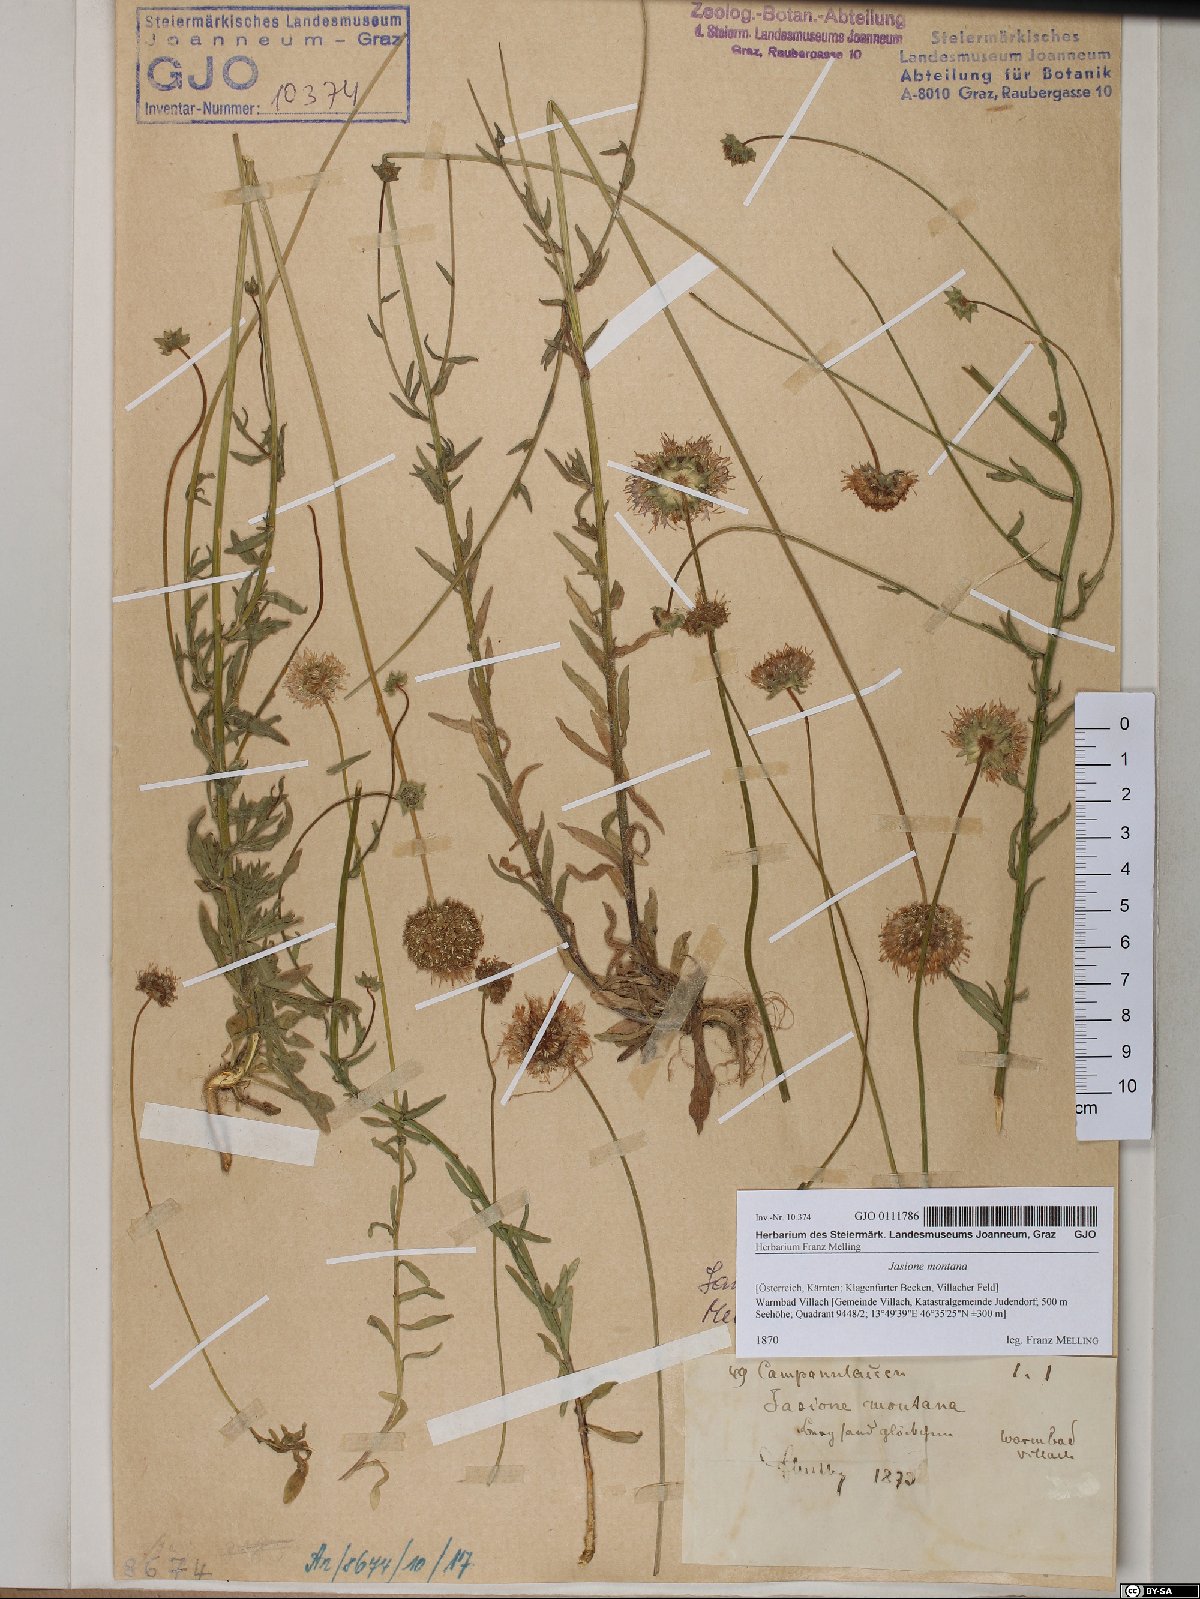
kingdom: Plantae
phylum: Tracheophyta
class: Magnoliopsida
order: Asterales
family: Campanulaceae
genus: Jasione
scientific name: Jasione montana
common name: Sheep's-bit
